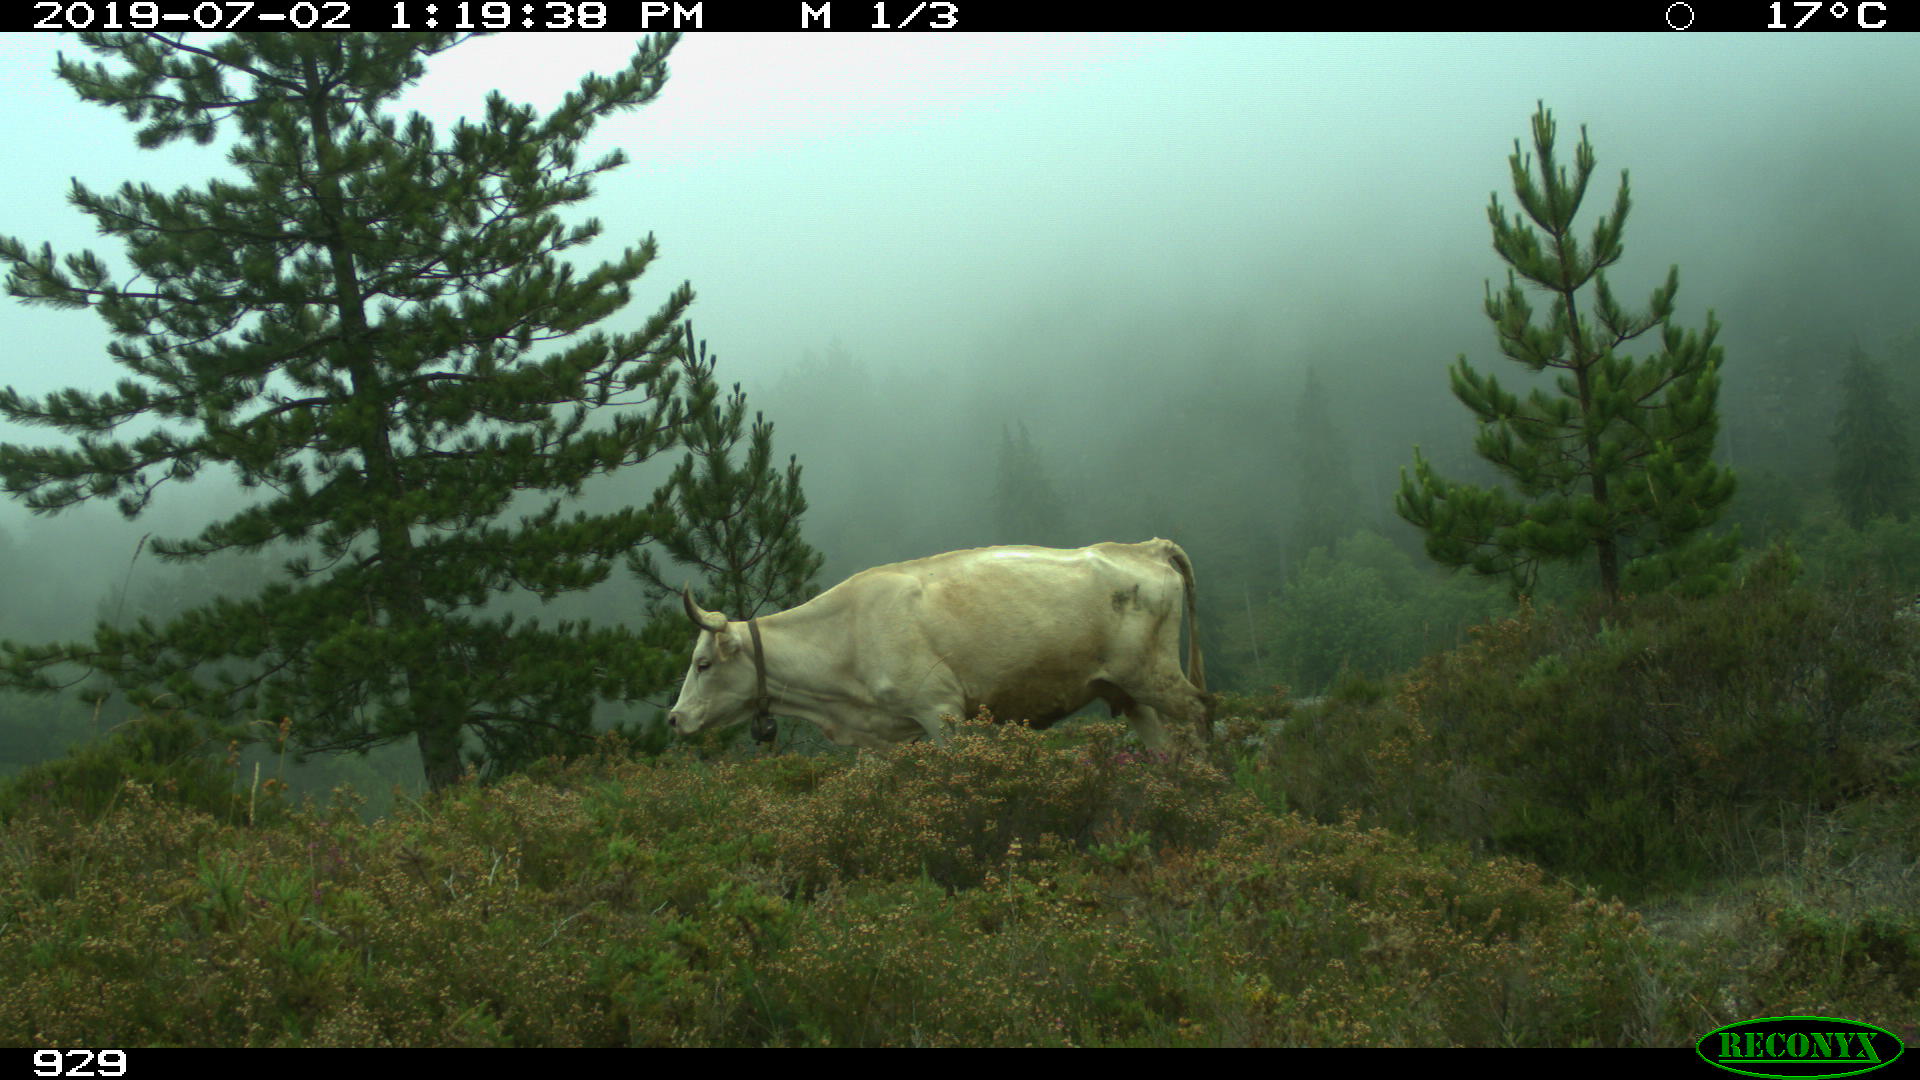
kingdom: Animalia
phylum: Chordata
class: Mammalia
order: Artiodactyla
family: Bovidae
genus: Bos
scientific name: Bos taurus
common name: Domesticated cattle
